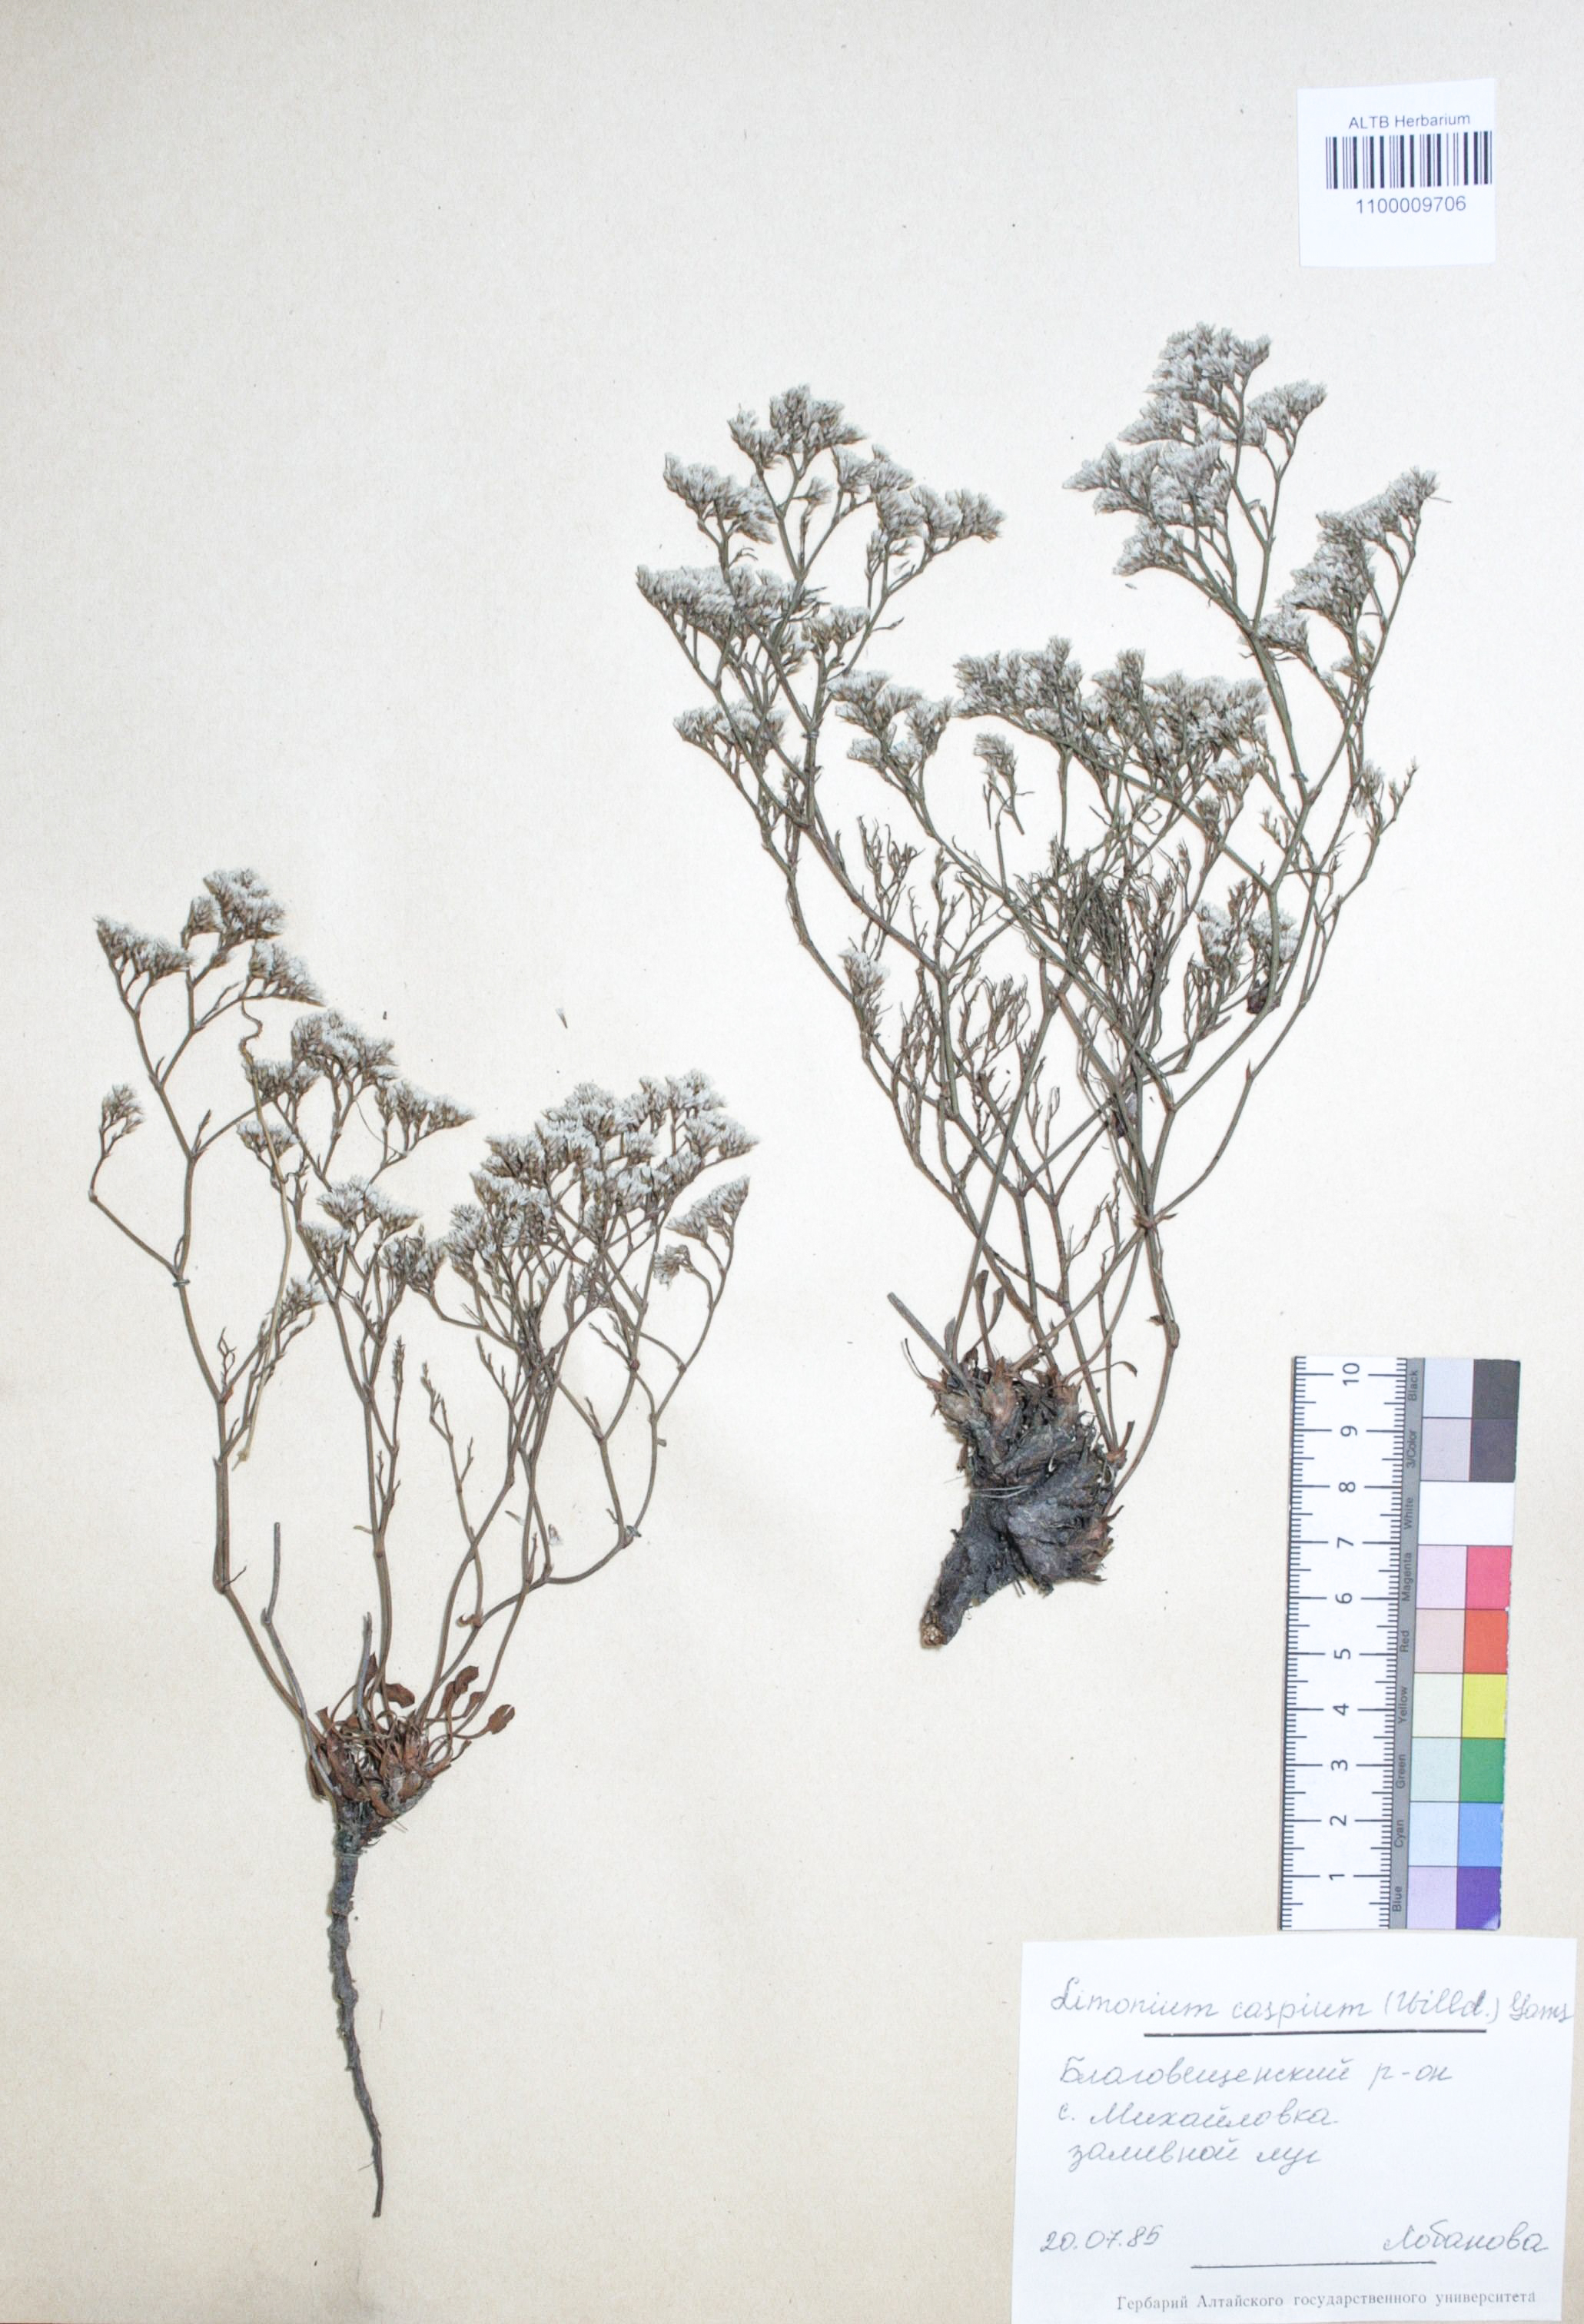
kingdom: Plantae
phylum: Tracheophyta
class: Magnoliopsida
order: Caryophyllales
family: Plumbaginaceae
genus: Limonium
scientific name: Limonium bellidifolium
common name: Matted sea-lavender
